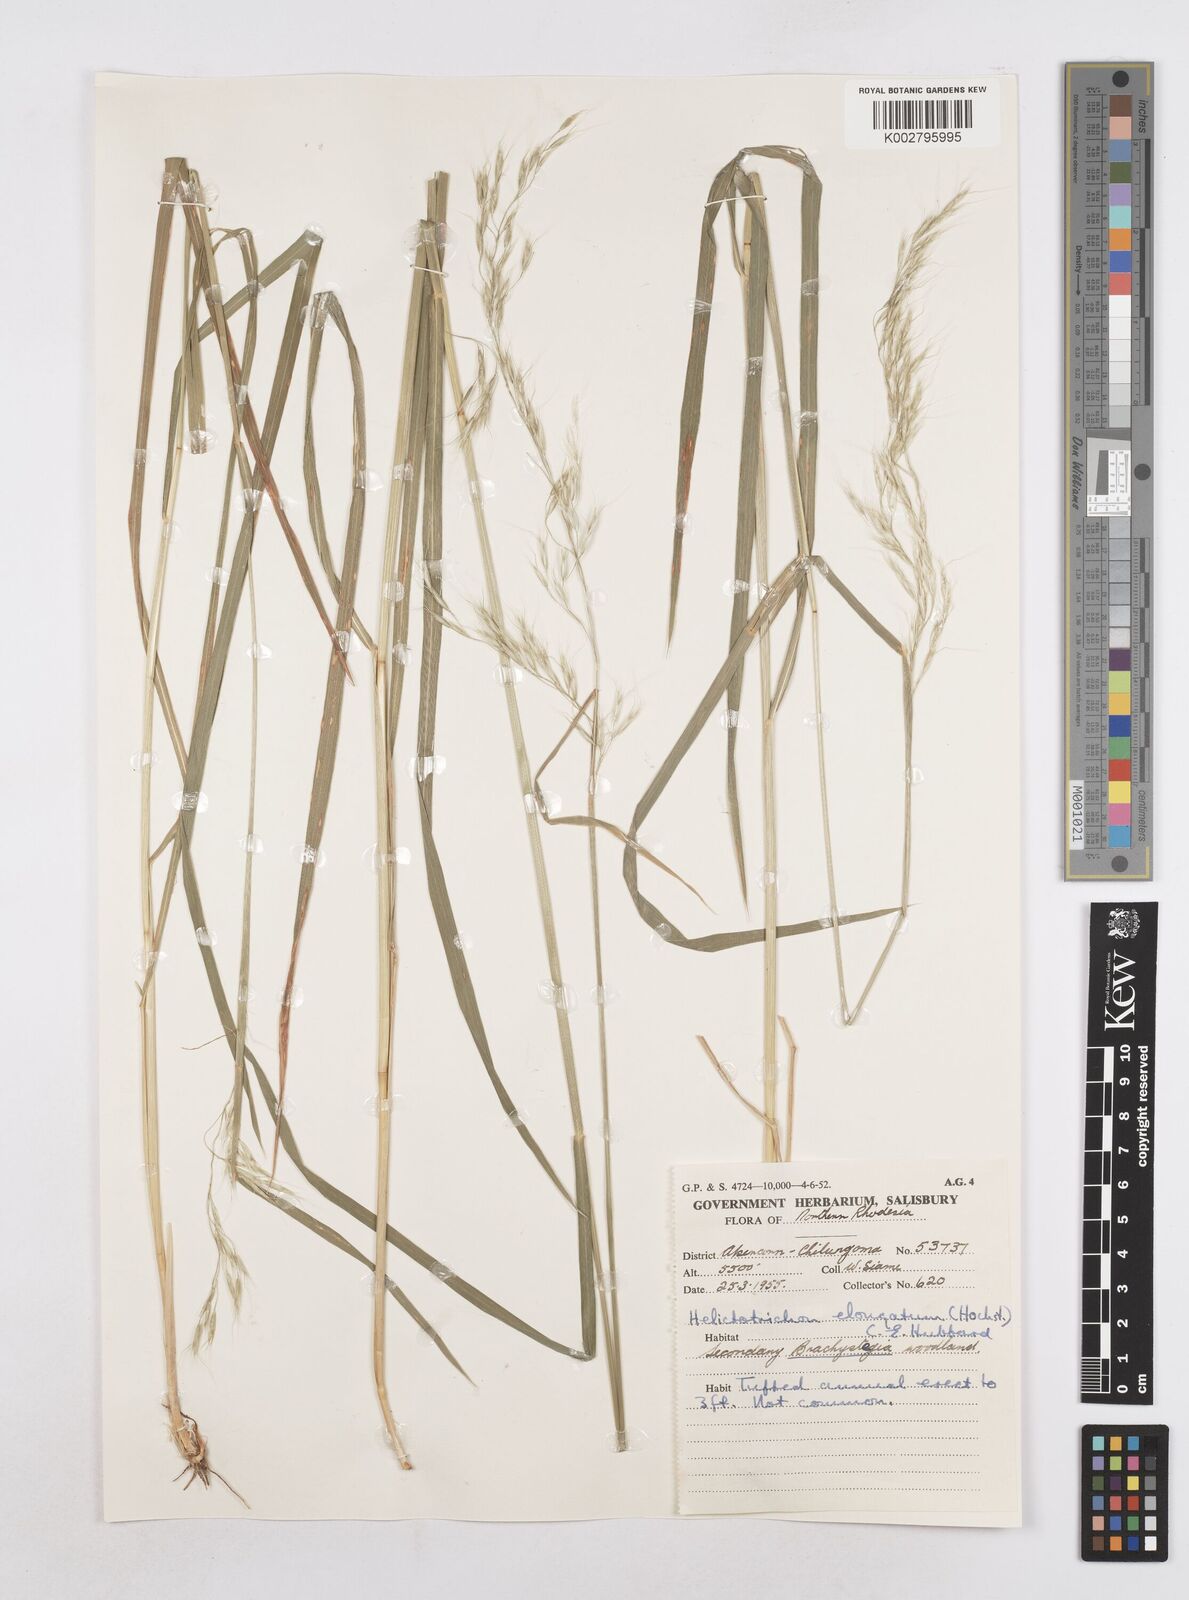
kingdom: Plantae
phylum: Tracheophyta
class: Liliopsida
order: Poales
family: Poaceae
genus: Trisetopsis
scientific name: Trisetopsis elongata
